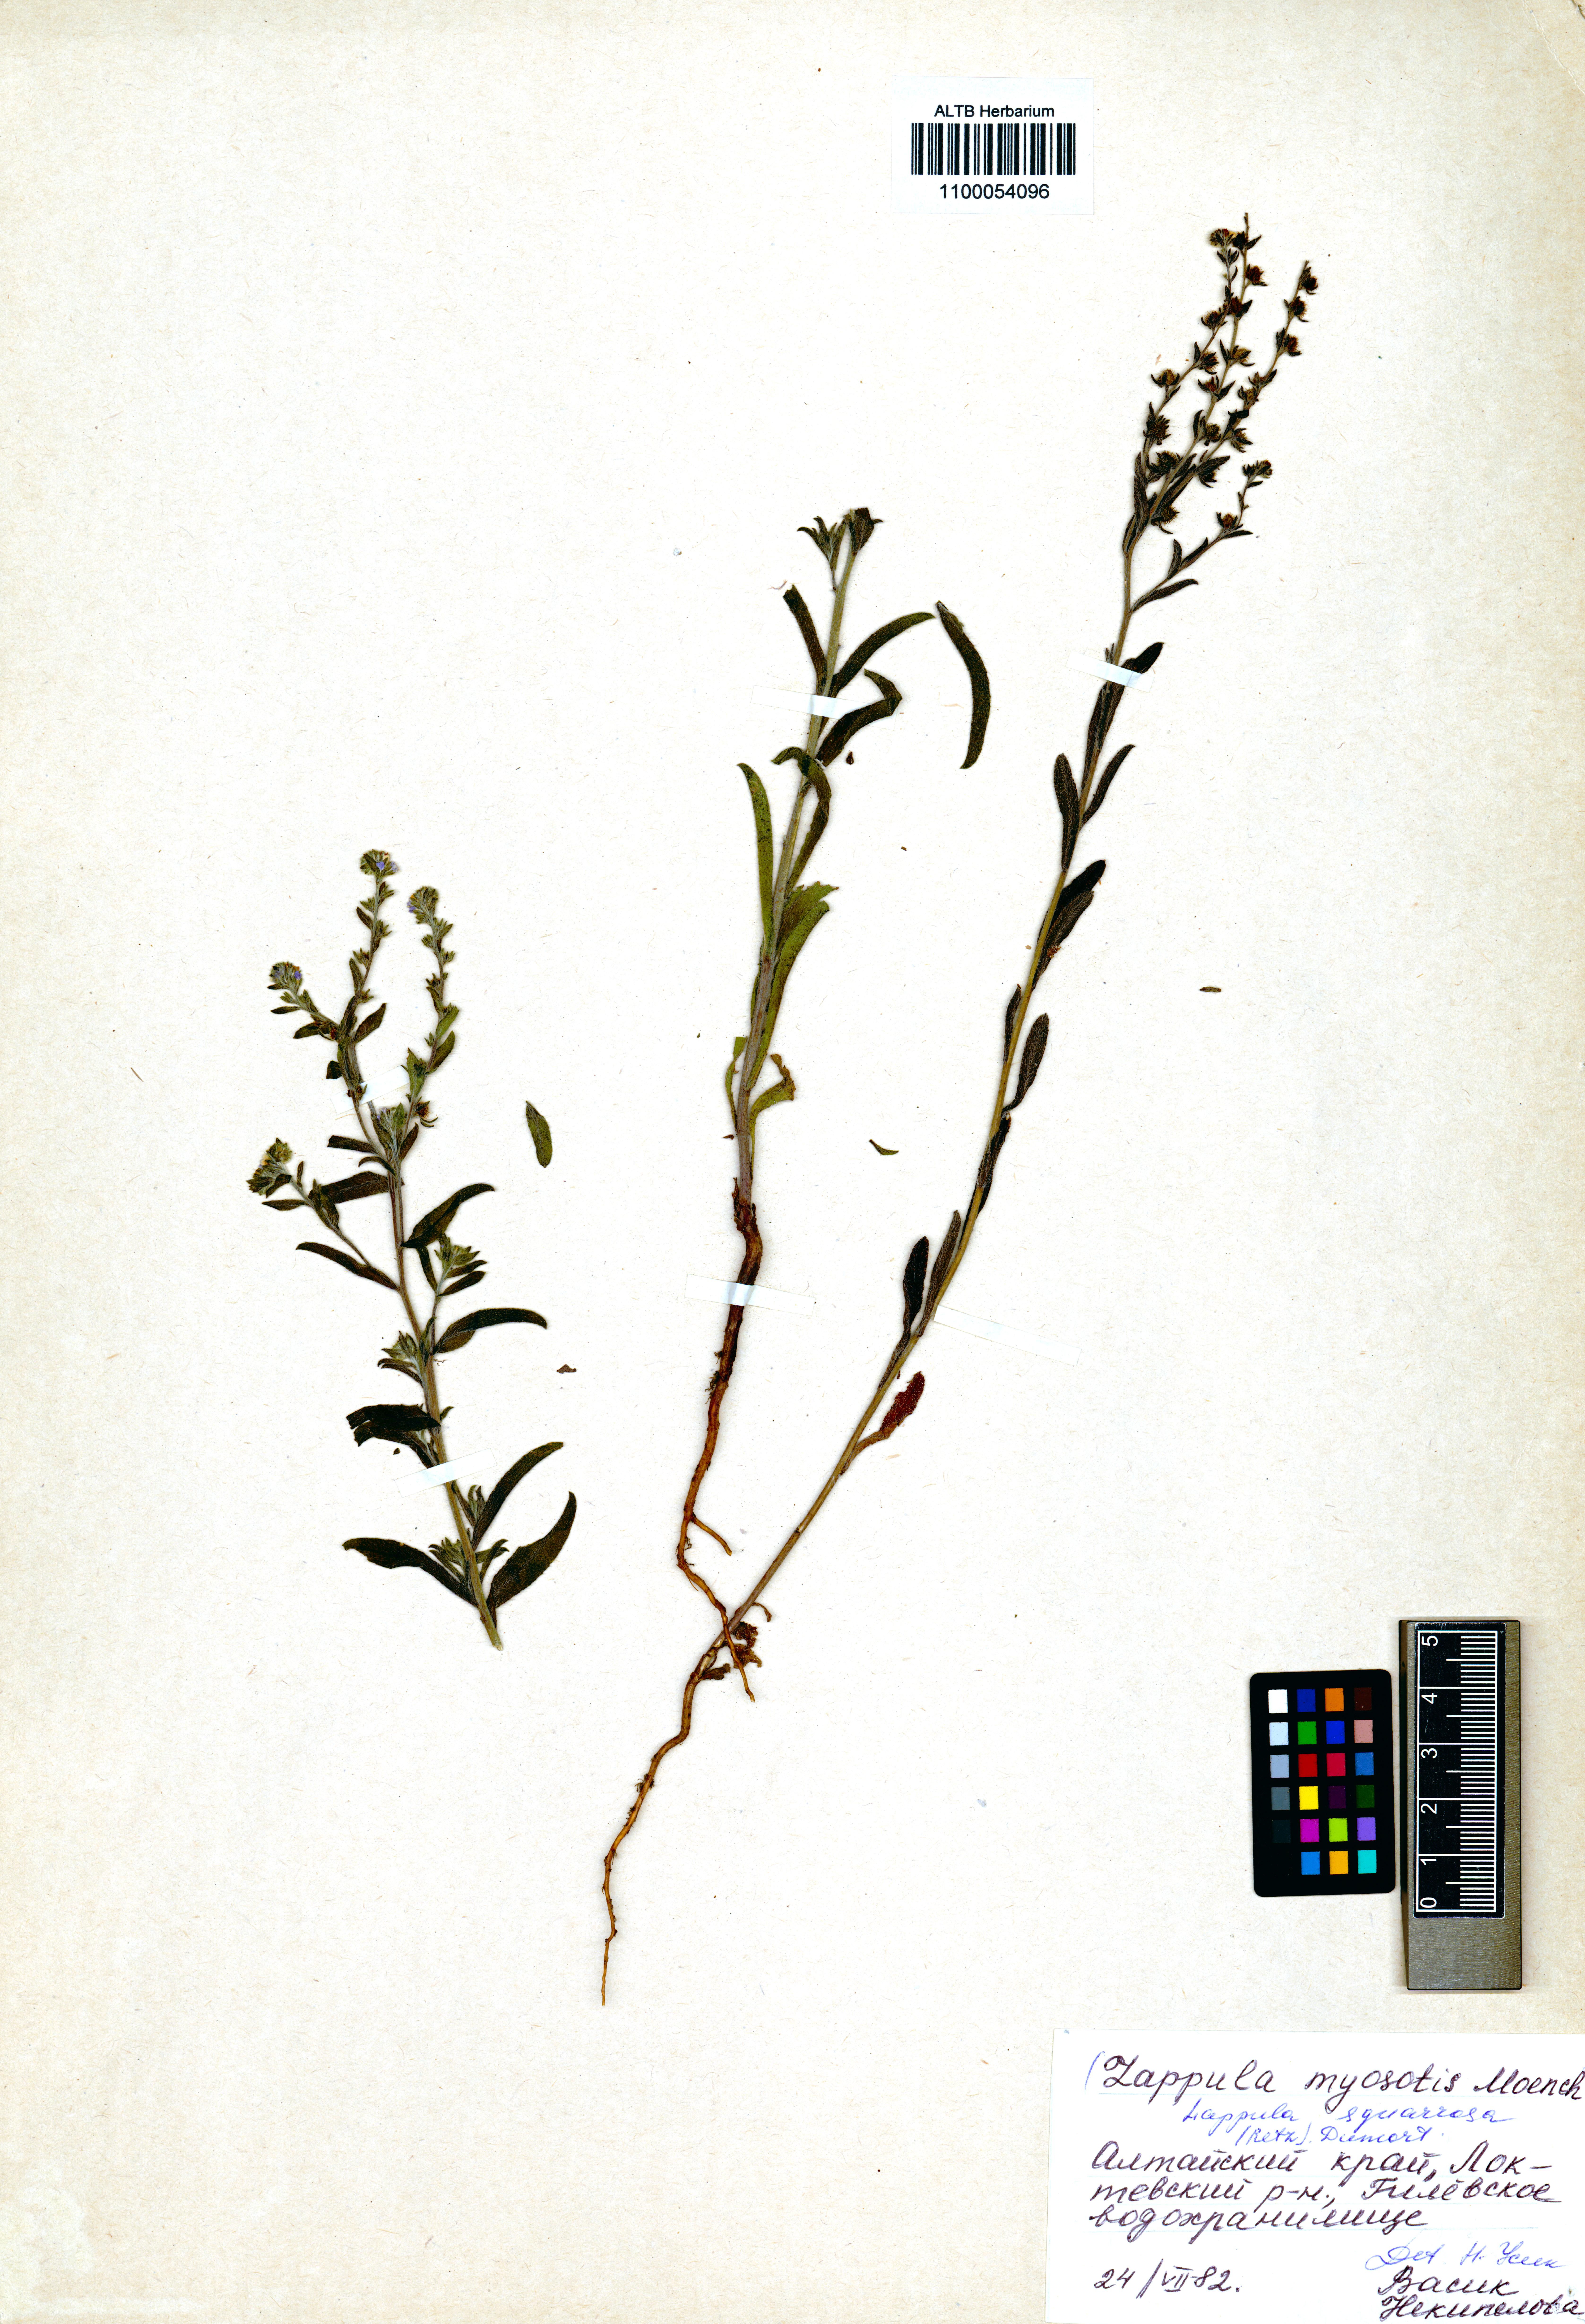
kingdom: Plantae
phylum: Tracheophyta
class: Magnoliopsida
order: Boraginales
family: Boraginaceae
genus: Lappula
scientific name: Lappula squarrosa
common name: European stickseed
